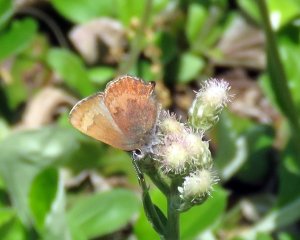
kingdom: Animalia
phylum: Arthropoda
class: Insecta
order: Lepidoptera
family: Lycaenidae
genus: Incisalia
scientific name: Incisalia irioides
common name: Brown Elfin
